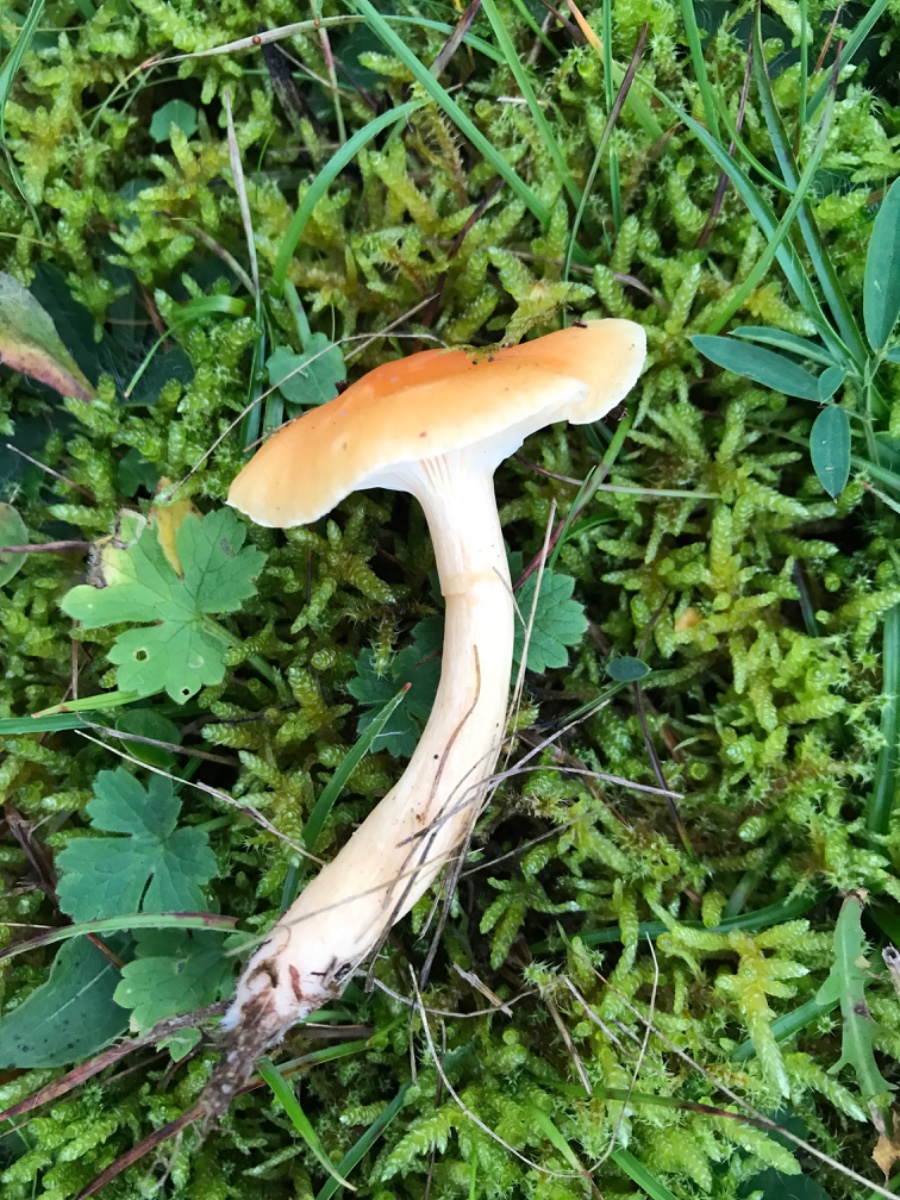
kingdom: Fungi
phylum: Basidiomycota
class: Agaricomycetes
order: Agaricales
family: Hygrophoraceae
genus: Cuphophyllus
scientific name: Cuphophyllus pratensis
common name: eng-vokshat
